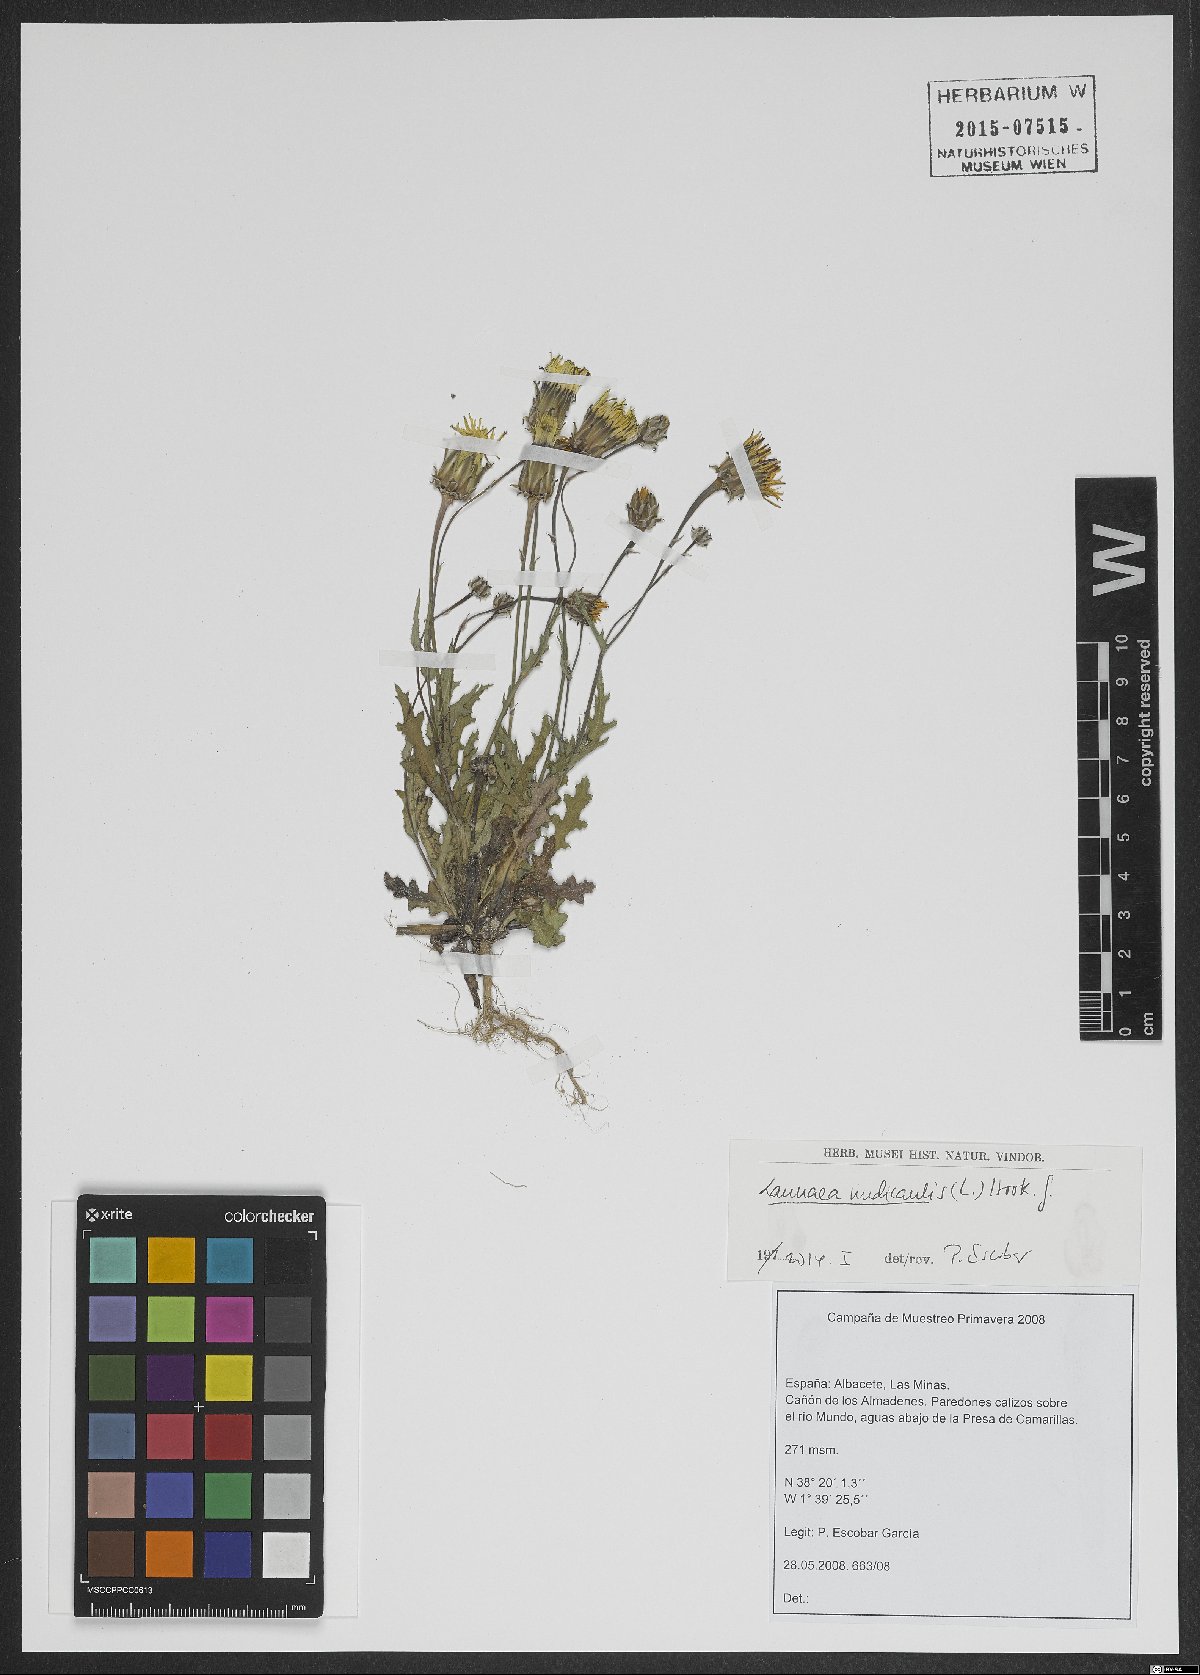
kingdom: Plantae
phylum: Tracheophyta
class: Magnoliopsida
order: Asterales
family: Asteraceae
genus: Launaea
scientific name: Launaea mucronata
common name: Mucronate launea
